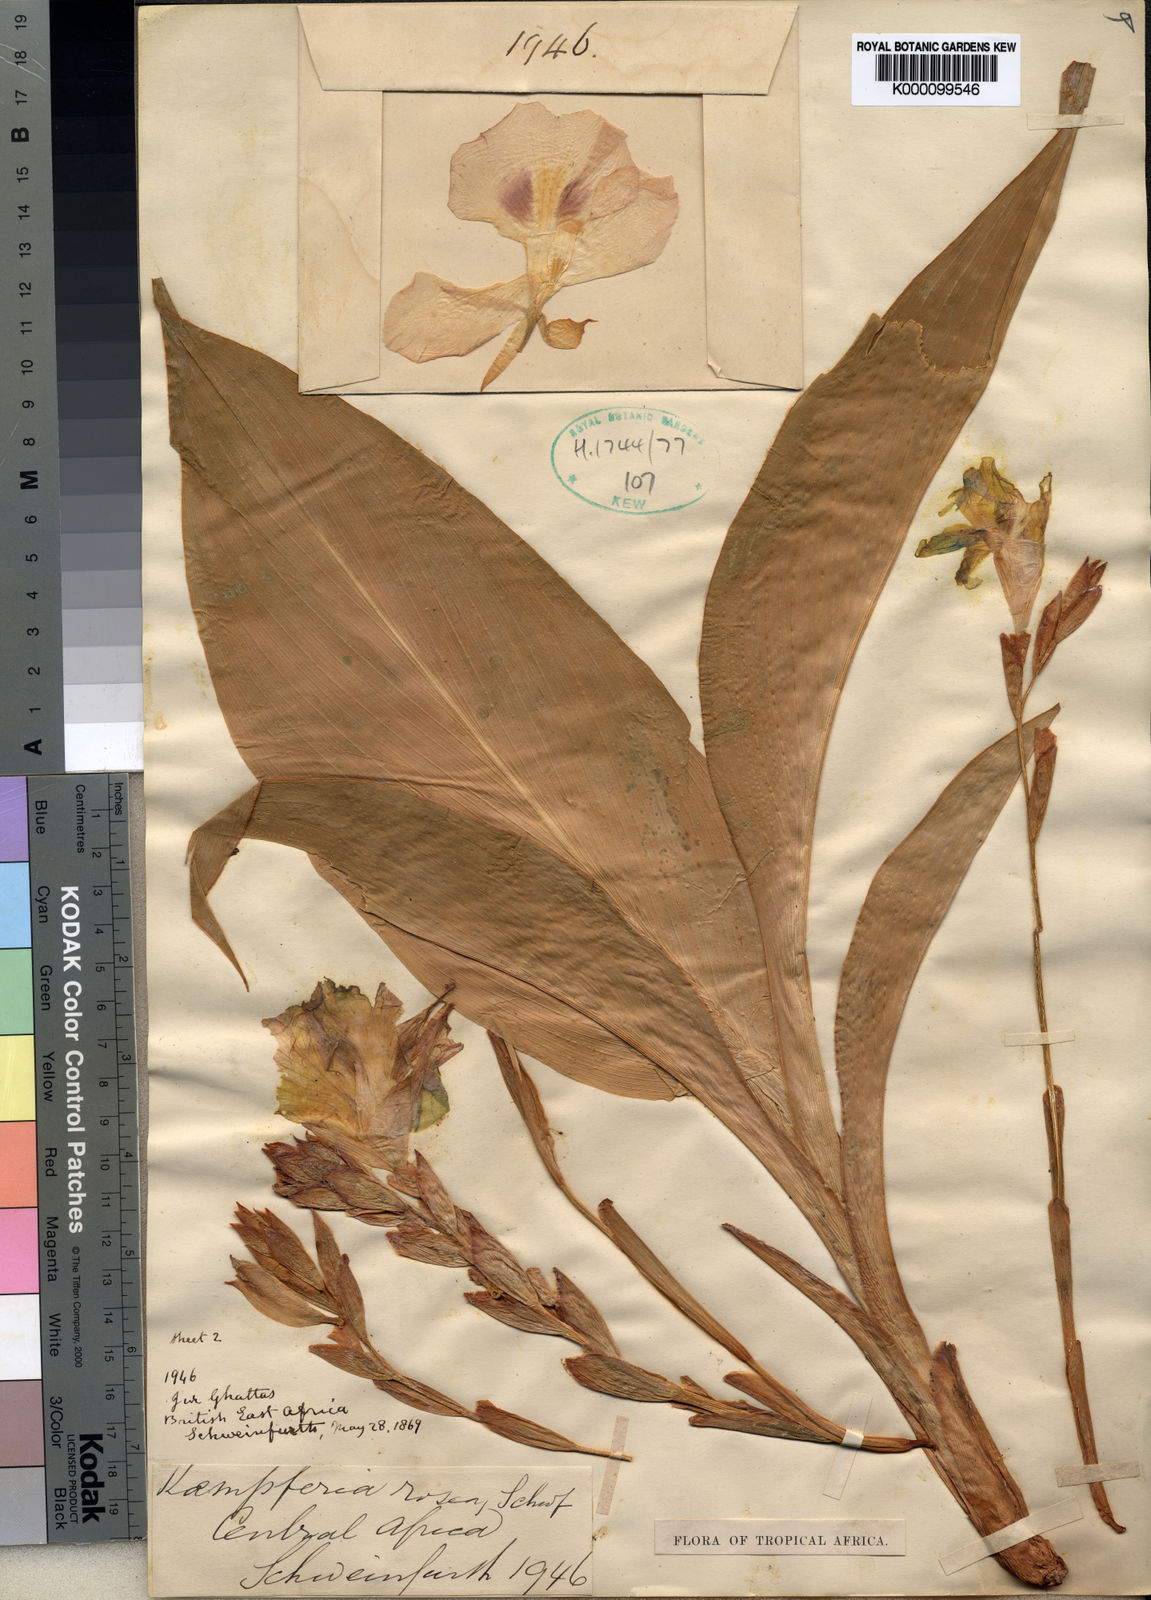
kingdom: Plantae
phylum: Tracheophyta
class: Liliopsida
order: Zingiberales
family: Zingiberaceae
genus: Kaempferia
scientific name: Kaempferia
